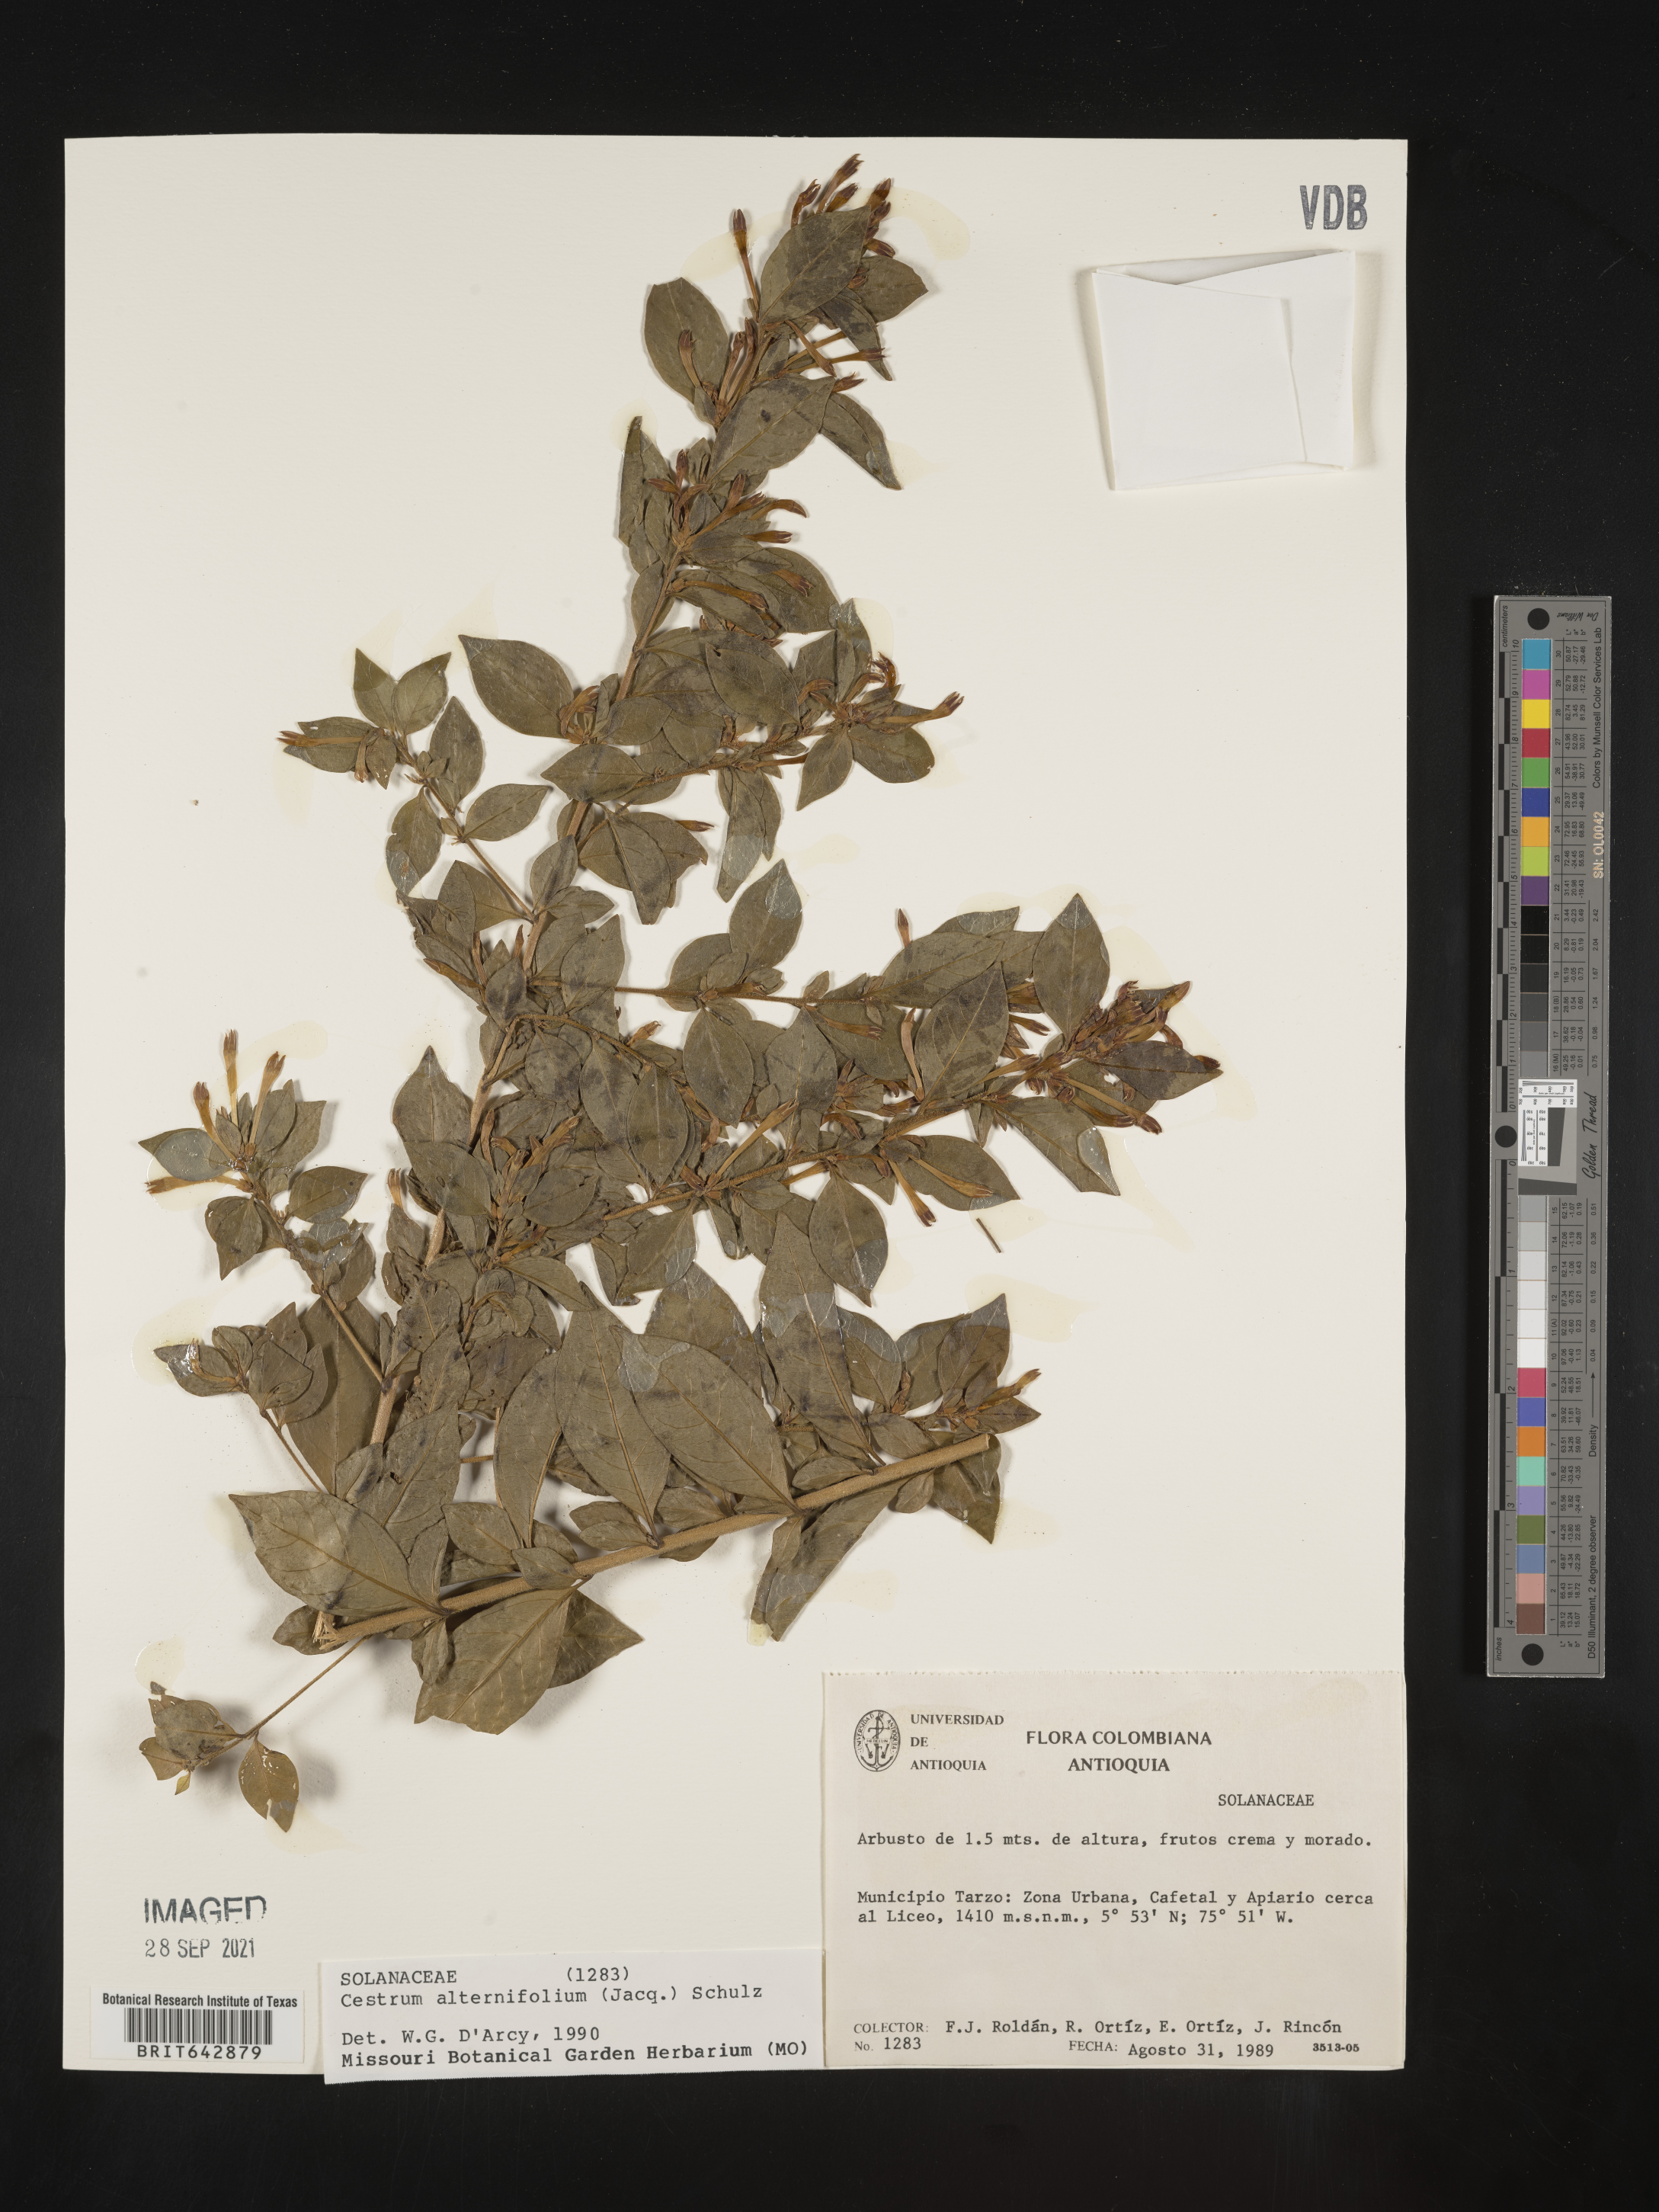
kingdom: Plantae
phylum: Tracheophyta
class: Magnoliopsida
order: Solanales
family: Solanaceae
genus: Cestrum
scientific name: Cestrum
